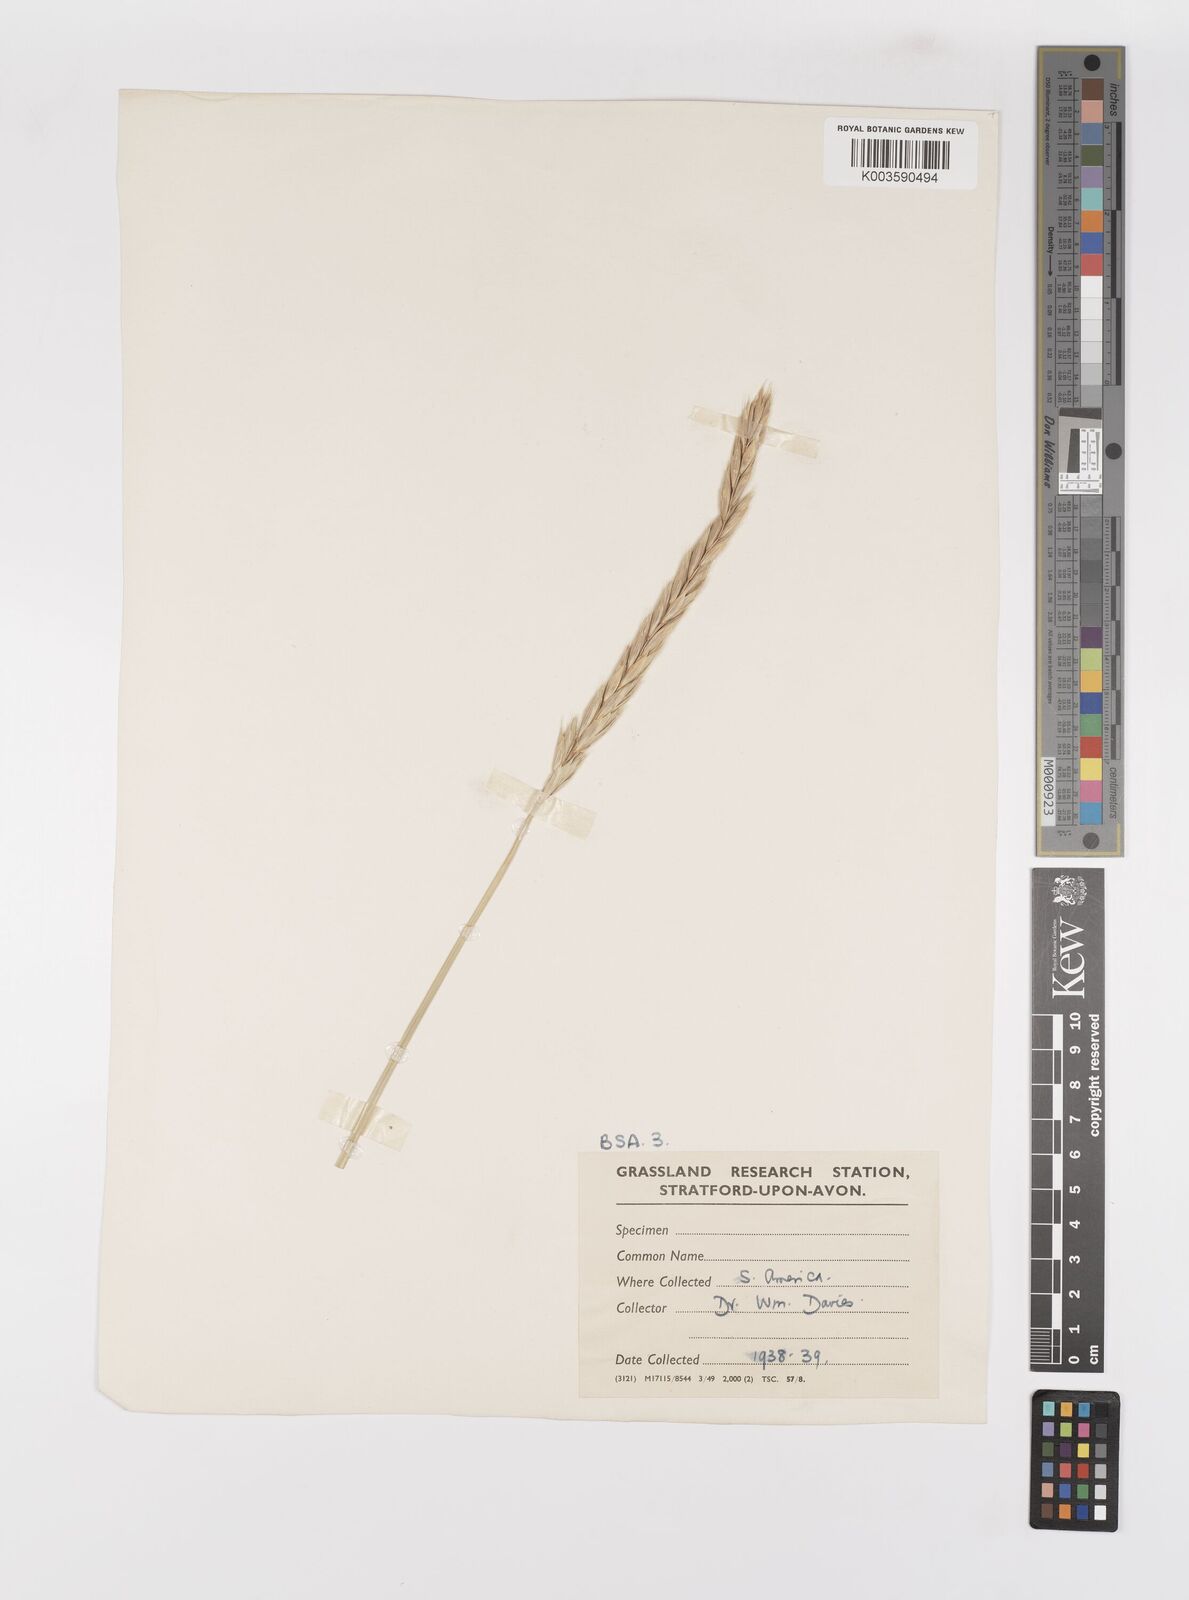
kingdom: Plantae
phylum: Tracheophyta
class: Liliopsida
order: Poales
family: Poaceae
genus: Elymus
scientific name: Elymus magellanicus
